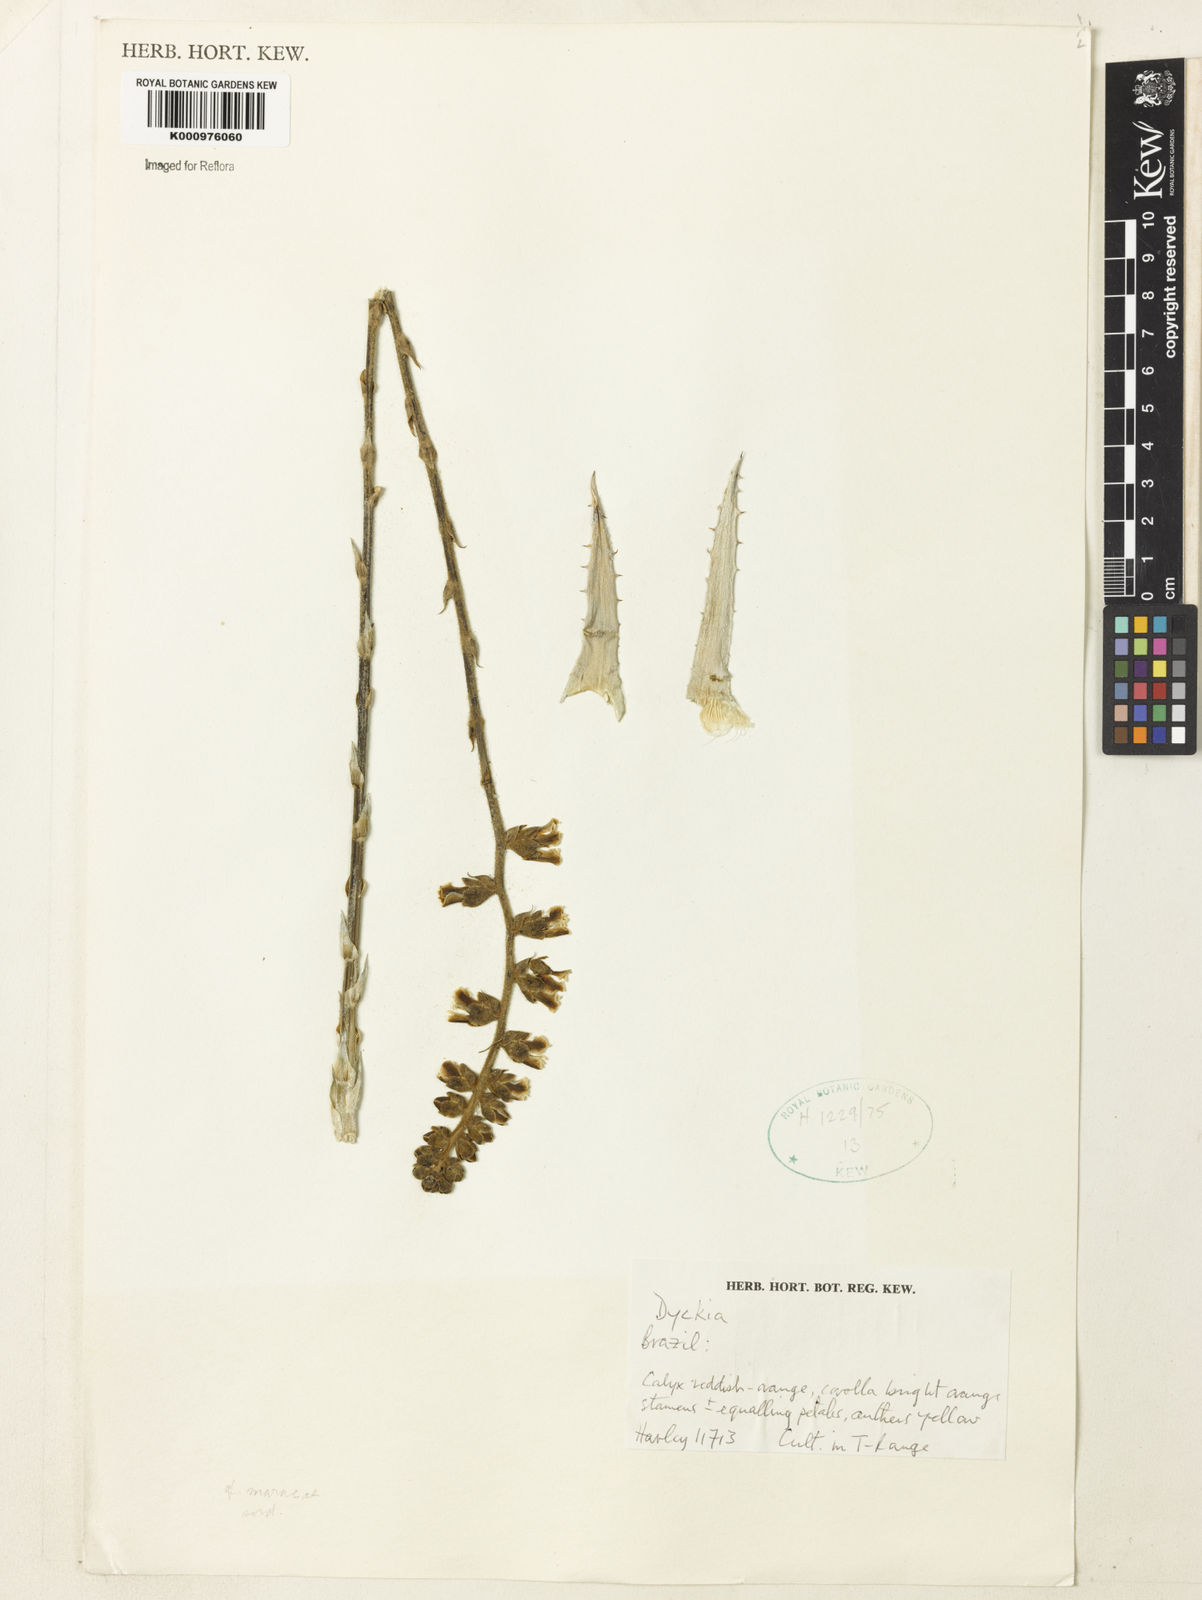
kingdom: Plantae
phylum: Tracheophyta
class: Liliopsida
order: Poales
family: Bromeliaceae
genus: Dyckia
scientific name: Dyckia
